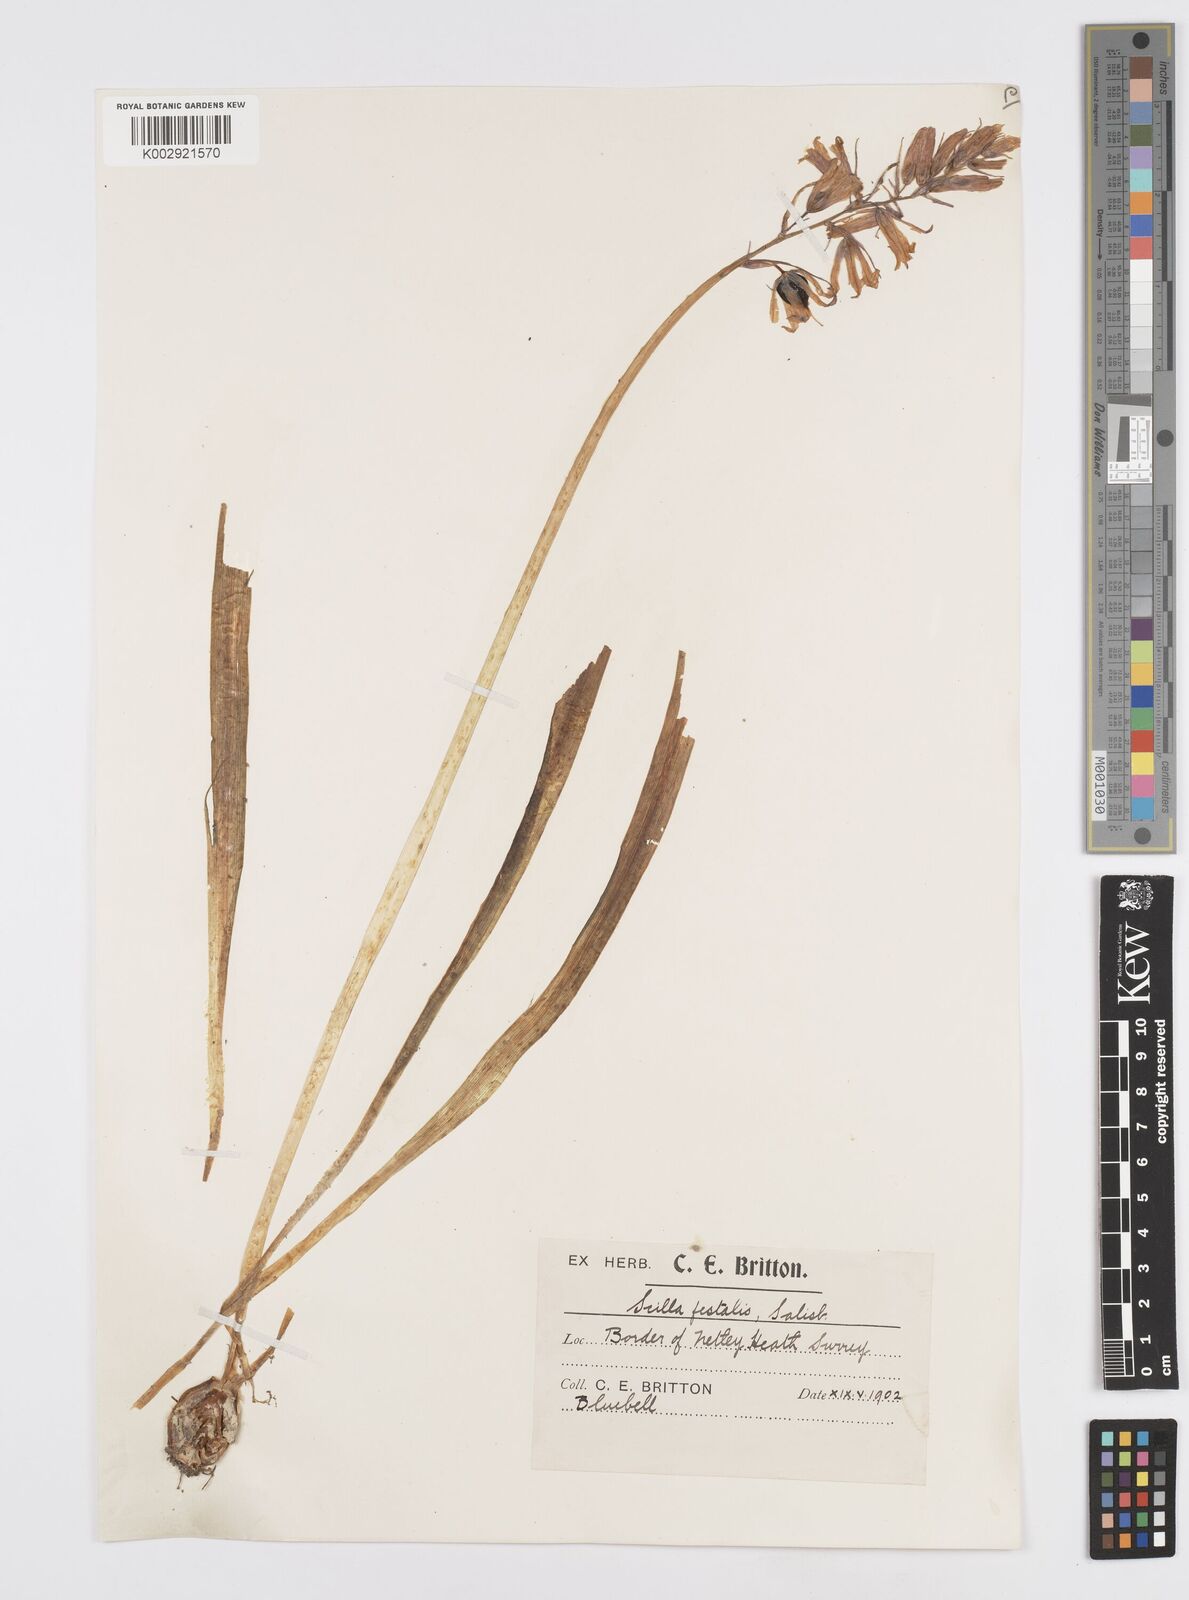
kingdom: Plantae
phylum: Tracheophyta
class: Liliopsida
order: Asparagales
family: Asparagaceae
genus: Hyacinthoides
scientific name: Hyacinthoides non-scripta
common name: Bluebell
